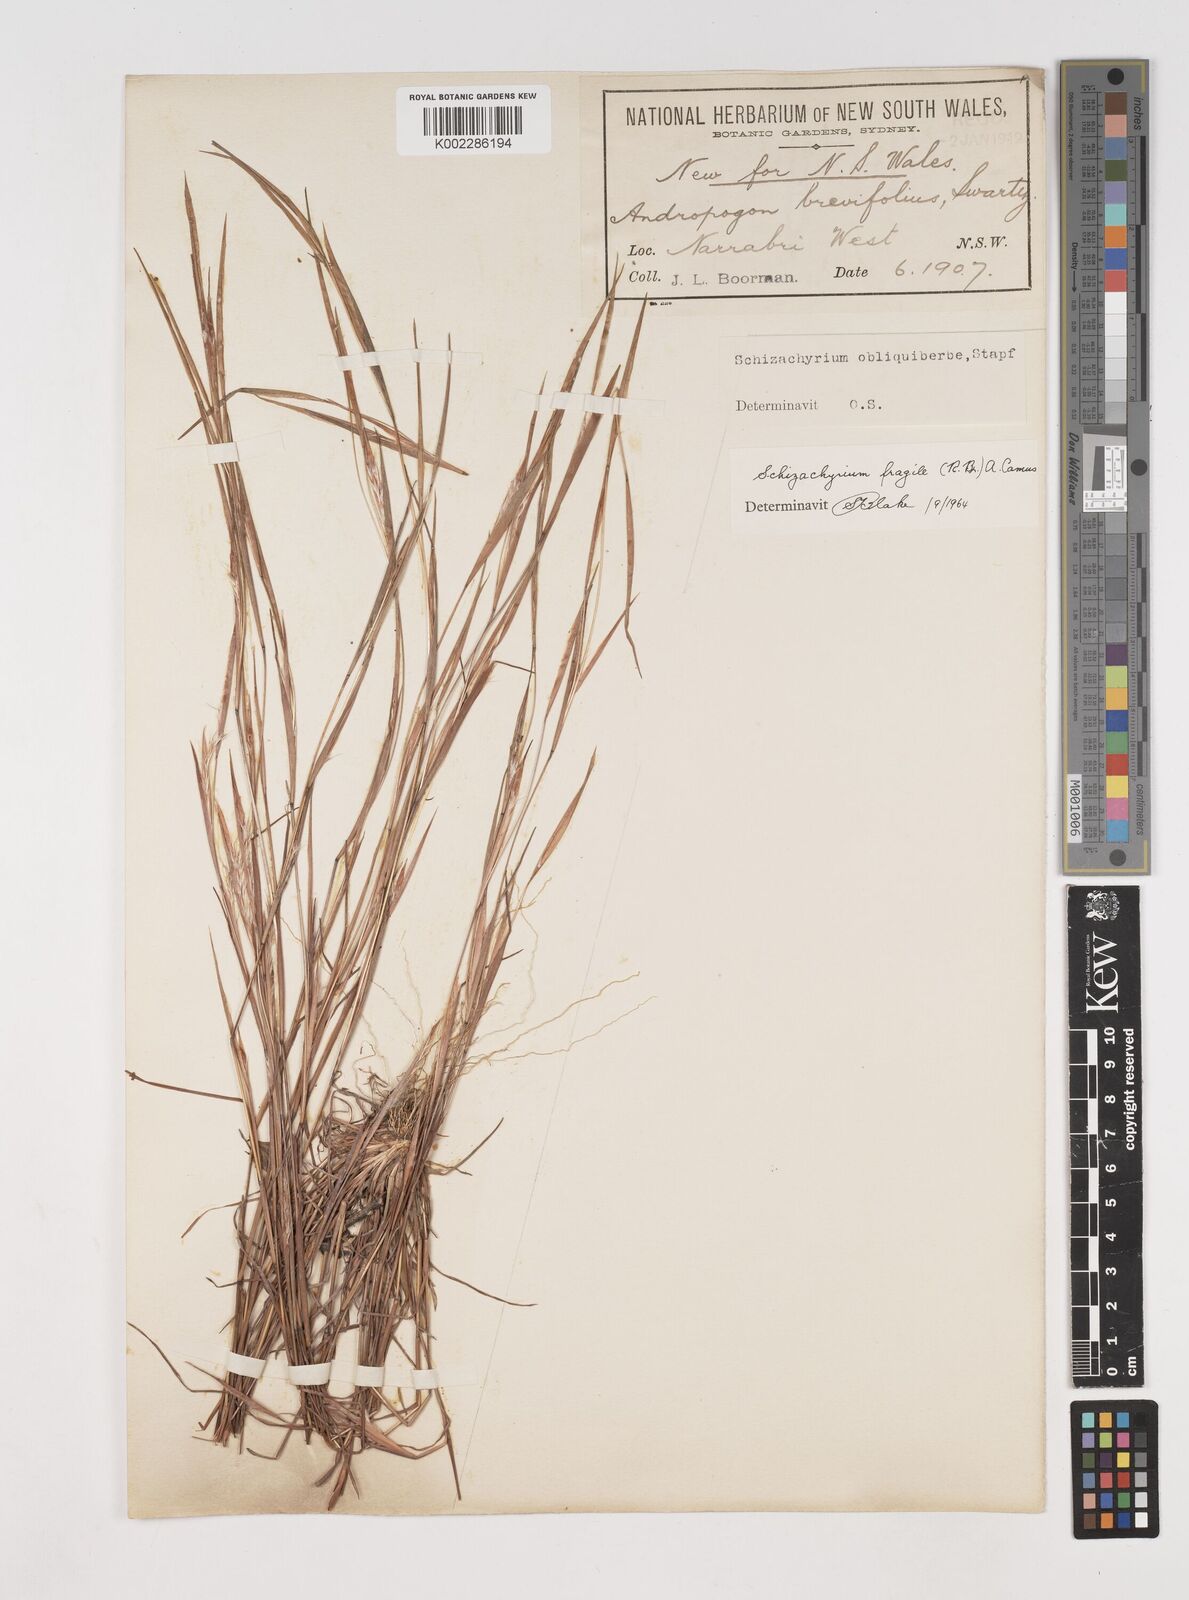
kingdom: Plantae
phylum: Tracheophyta
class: Liliopsida
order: Poales
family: Poaceae
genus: Schizachyrium
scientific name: Schizachyrium fragile
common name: Red spathe grass
